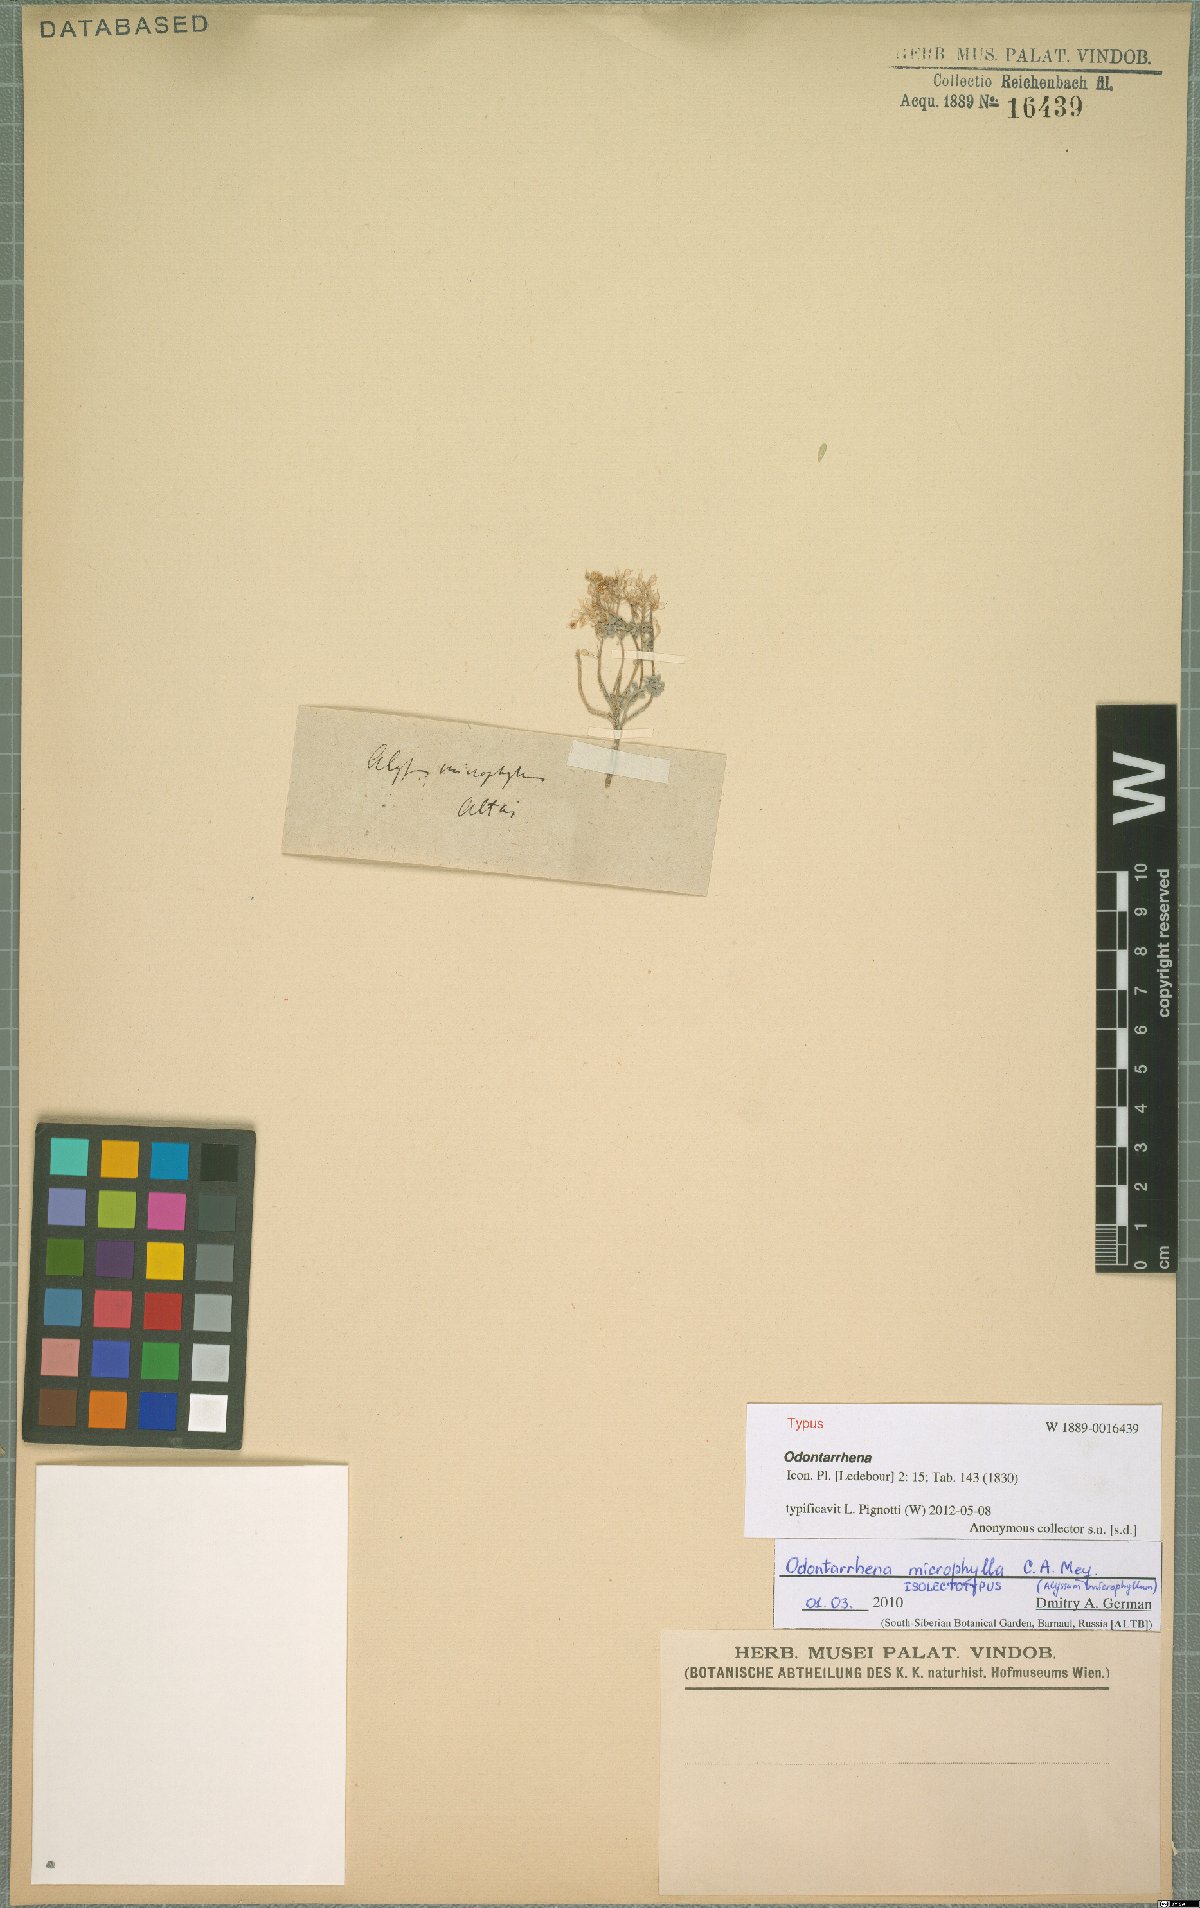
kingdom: Plantae
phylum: Tracheophyta
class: Magnoliopsida
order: Brassicales
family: Brassicaceae
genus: Odontarrhena
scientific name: Odontarrhena obovata
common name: American alyssum
